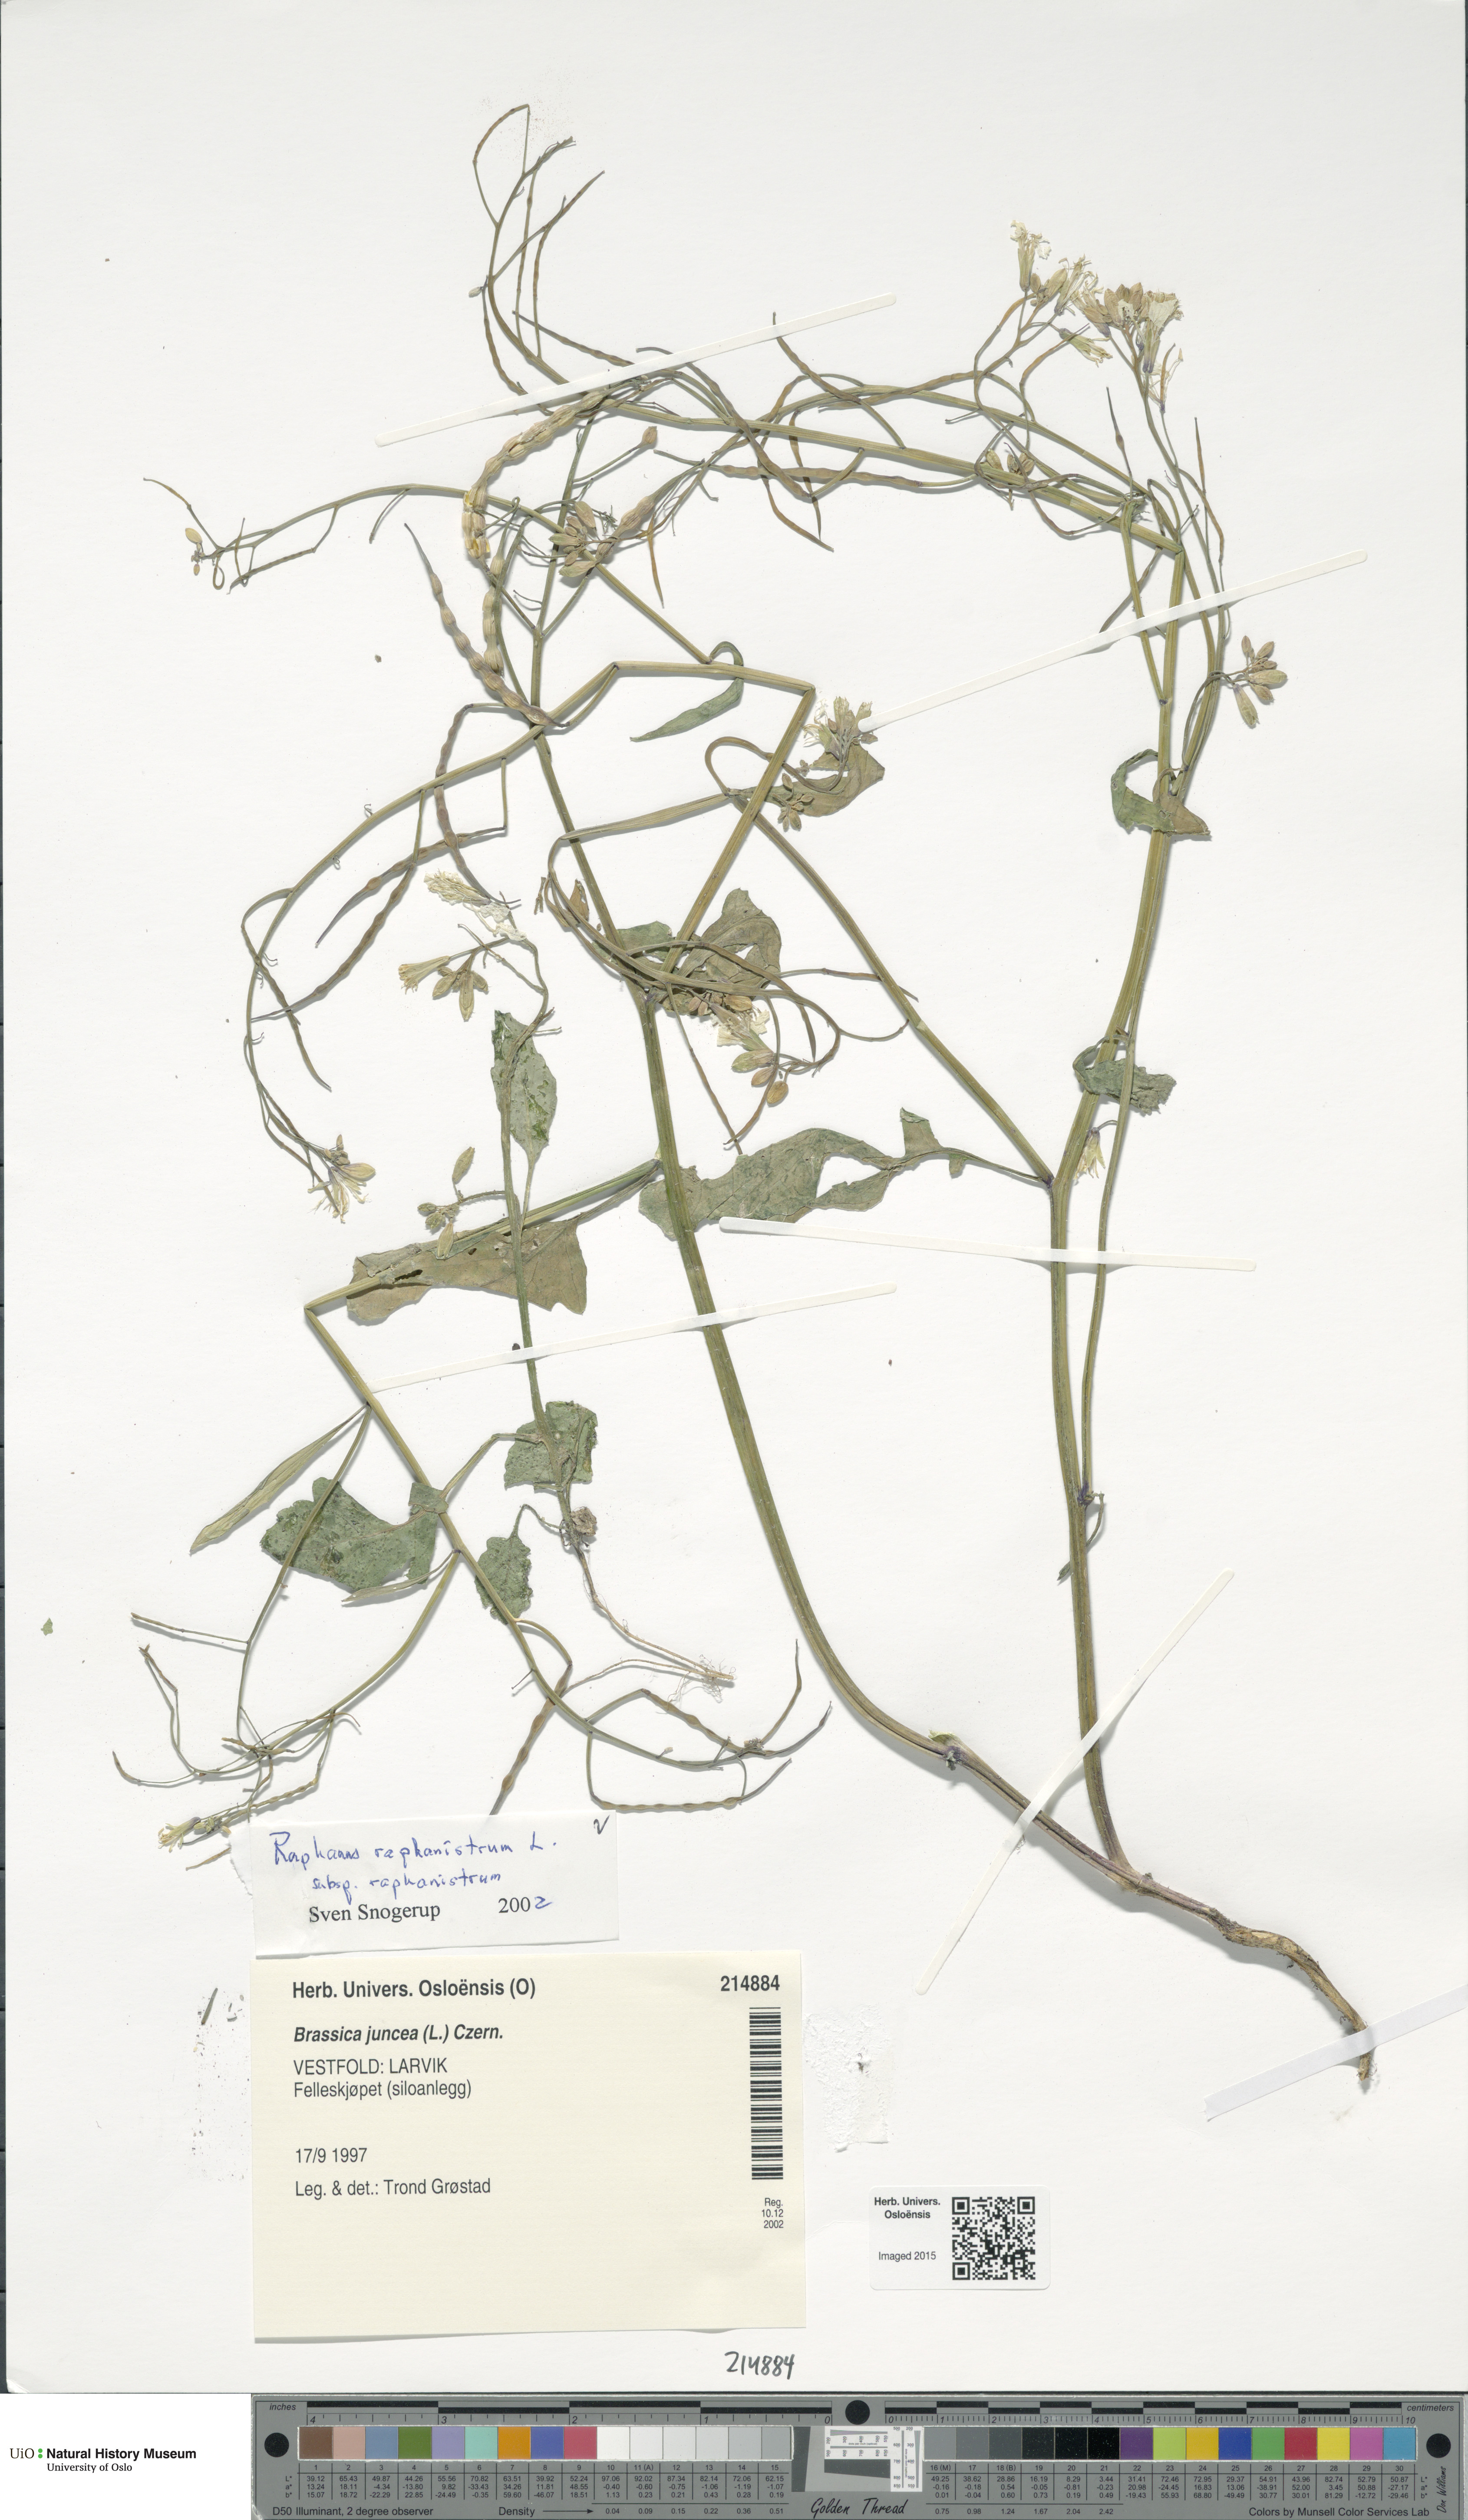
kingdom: Plantae
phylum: Tracheophyta
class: Magnoliopsida
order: Brassicales
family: Brassicaceae
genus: Raphanus
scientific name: Raphanus raphanistrum
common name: Wild radish
